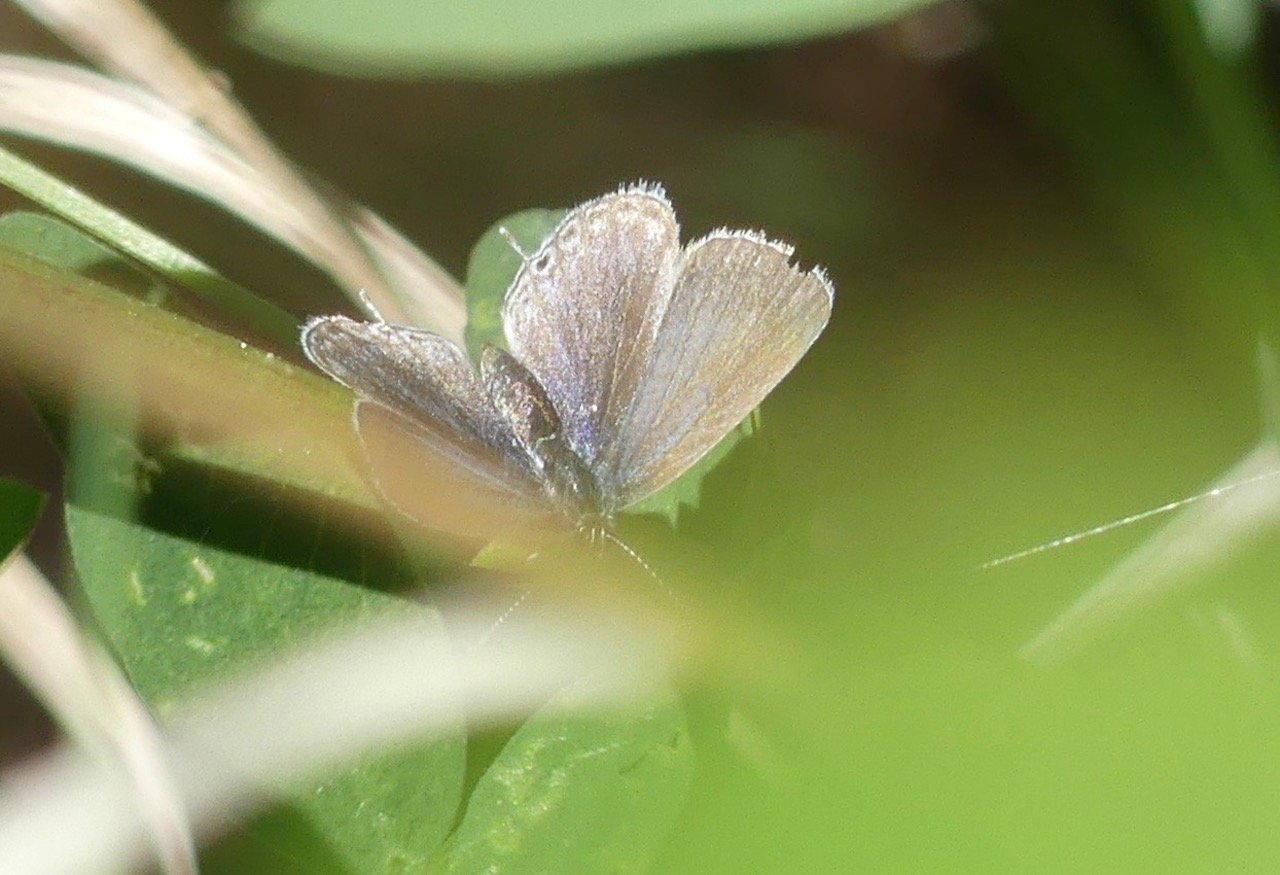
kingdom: Animalia
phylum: Arthropoda
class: Insecta
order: Lepidoptera
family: Lycaenidae
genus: Elkalyce
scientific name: Elkalyce amyntula
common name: Western Tailed-Blue
